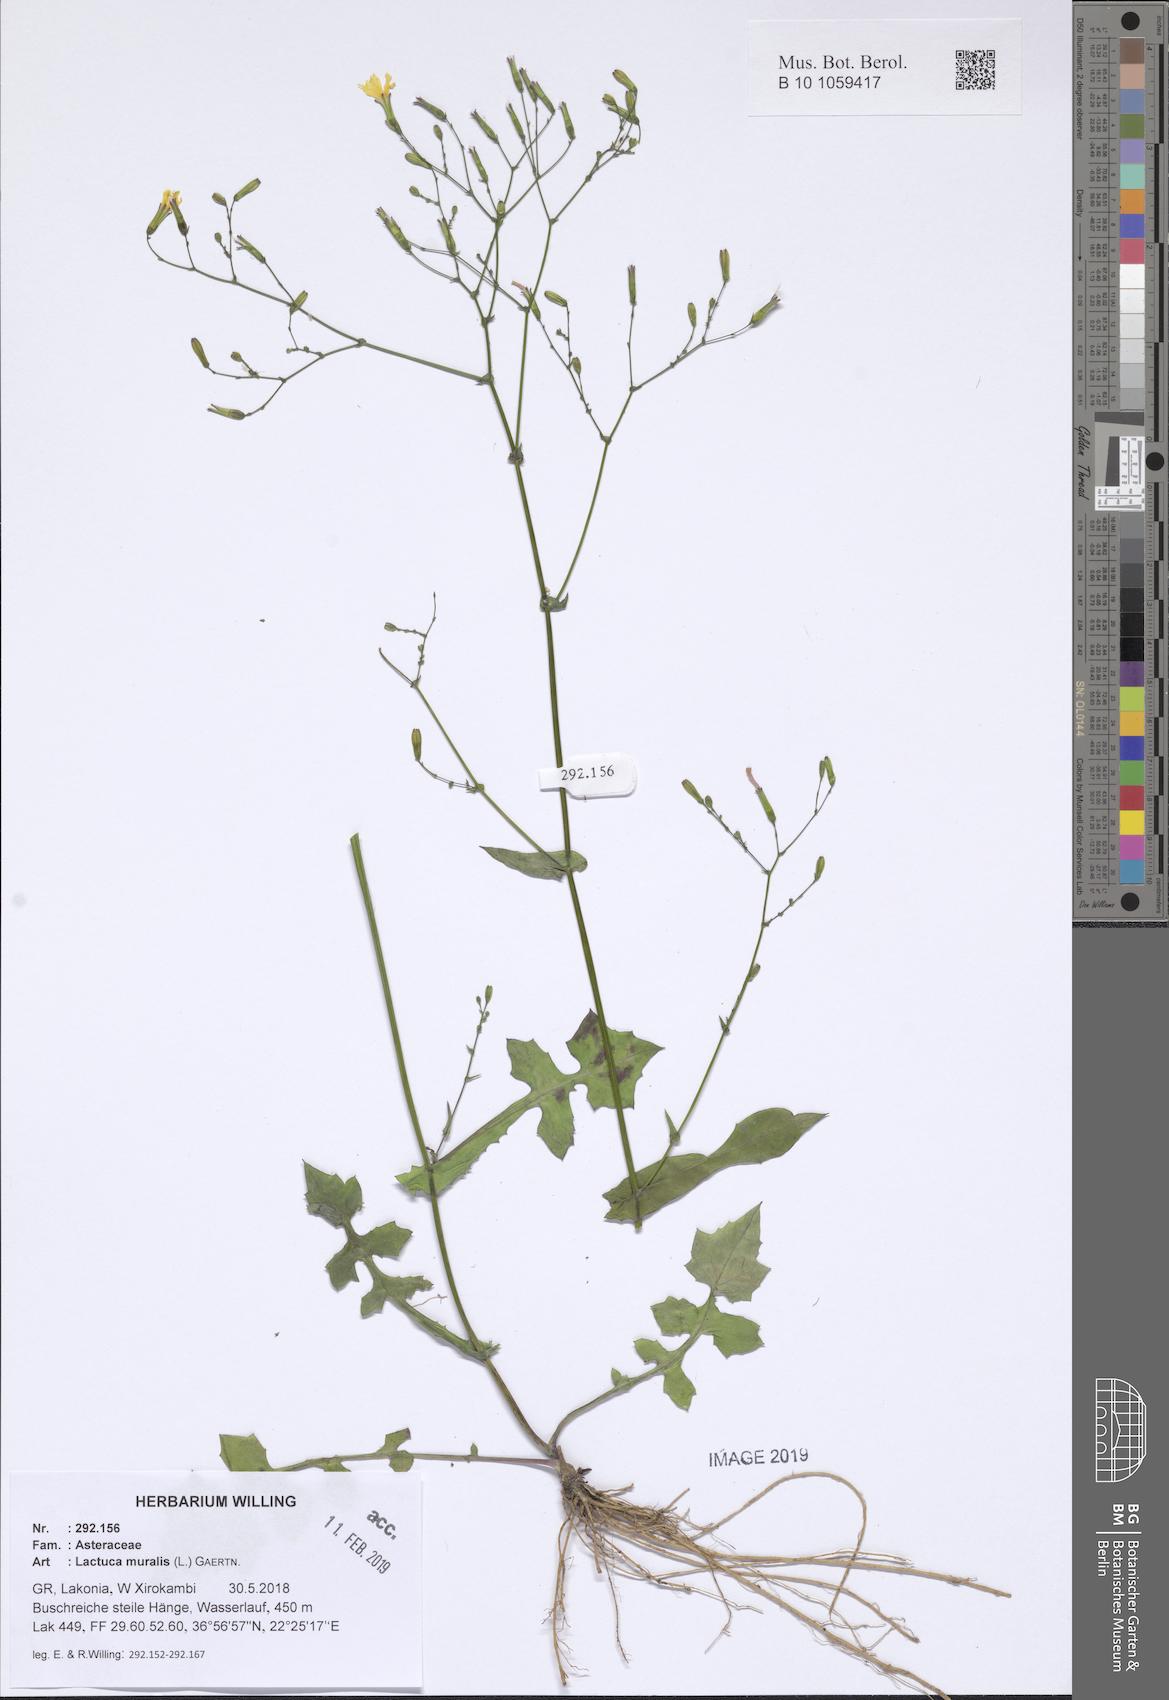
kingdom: Plantae
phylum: Tracheophyta
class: Magnoliopsida
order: Asterales
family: Asteraceae
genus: Mycelis
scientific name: Mycelis muralis
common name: Wall lettuce
